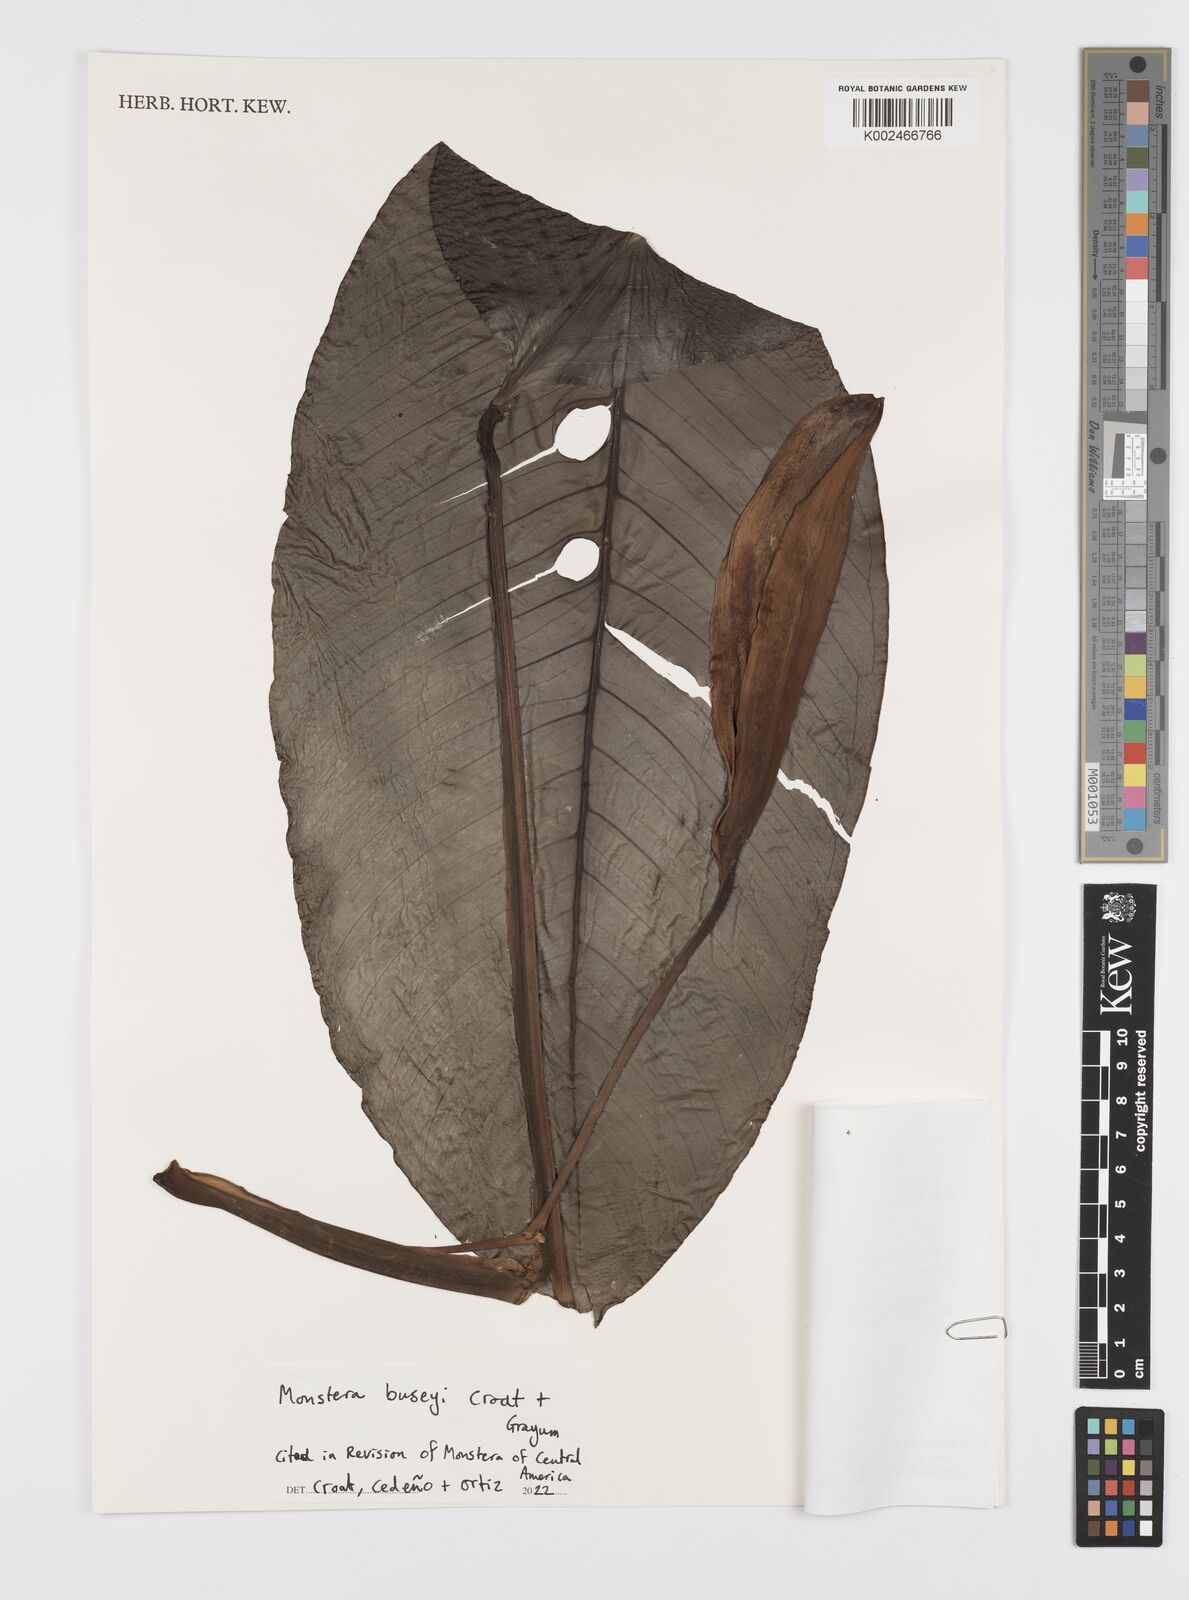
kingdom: Plantae
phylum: Tracheophyta
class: Liliopsida
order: Alismatales
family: Araceae
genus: Monstera
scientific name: Monstera buseyi
